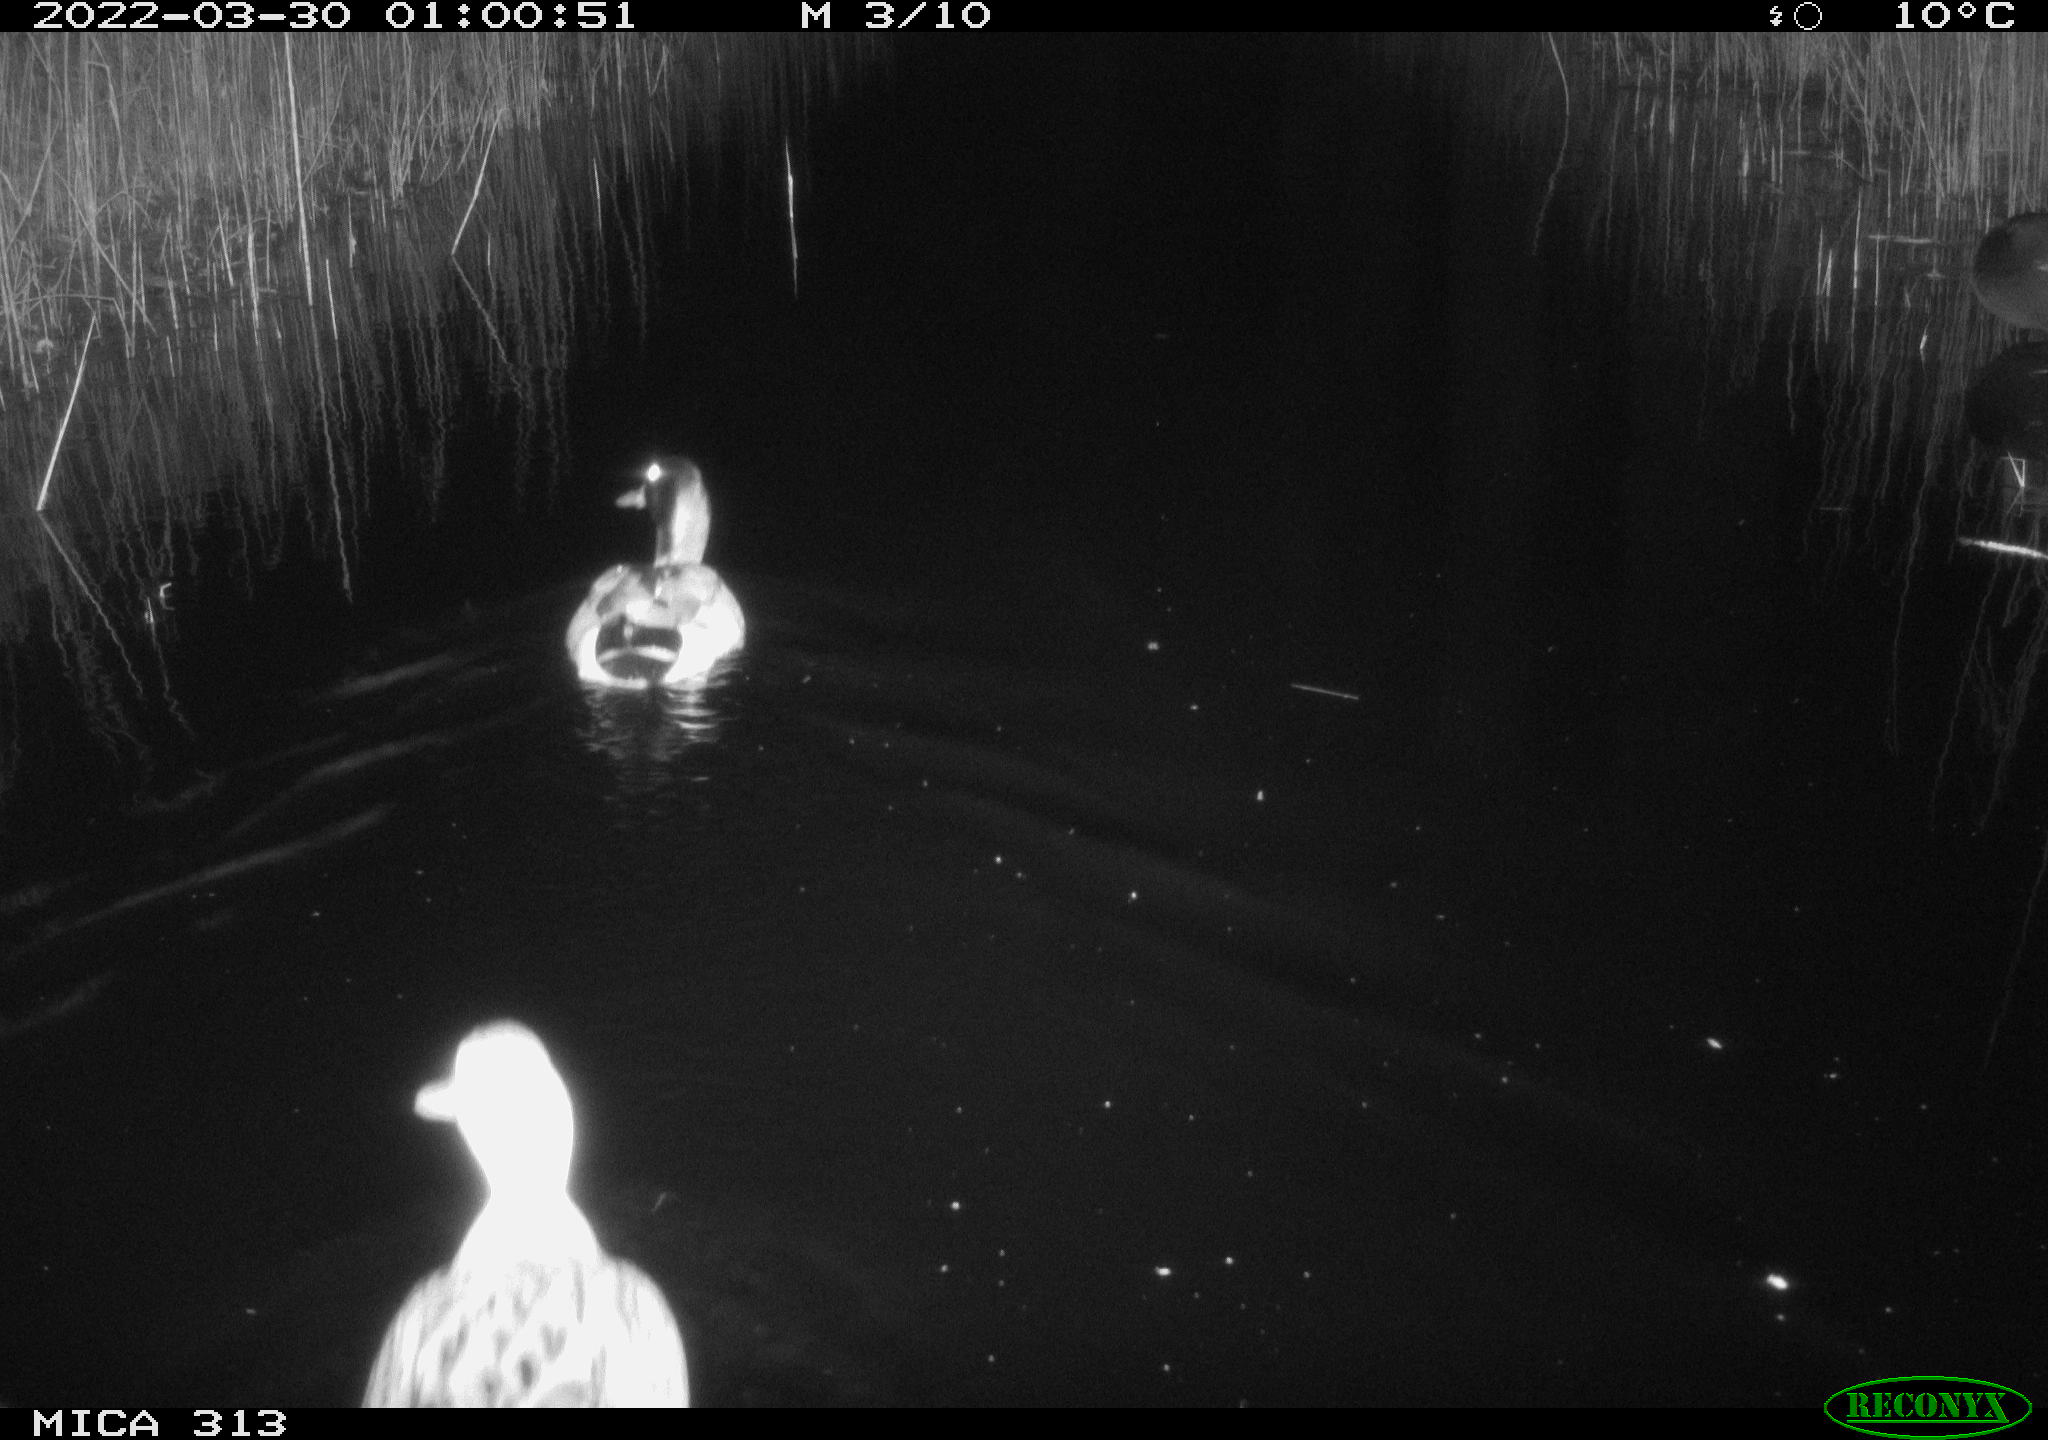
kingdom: Animalia
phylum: Chordata
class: Aves
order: Anseriformes
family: Anatidae
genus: Anas
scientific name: Anas platyrhynchos
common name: Mallard
